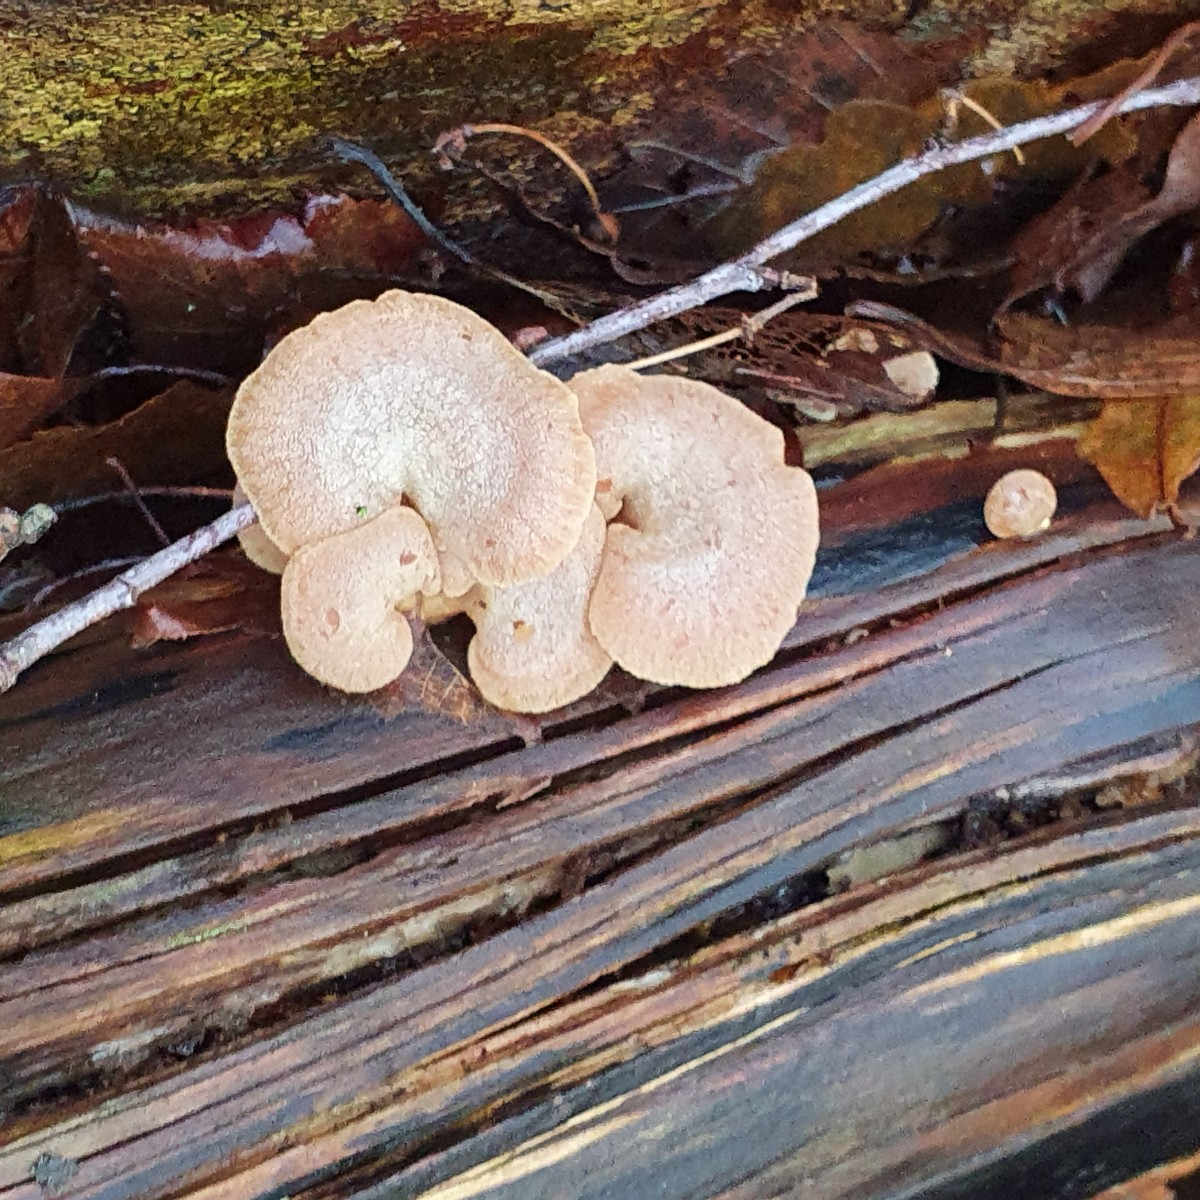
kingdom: Fungi
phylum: Basidiomycota
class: Agaricomycetes
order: Agaricales
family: Mycenaceae
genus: Panellus
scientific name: Panellus stipticus
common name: kliddet epaulethat
